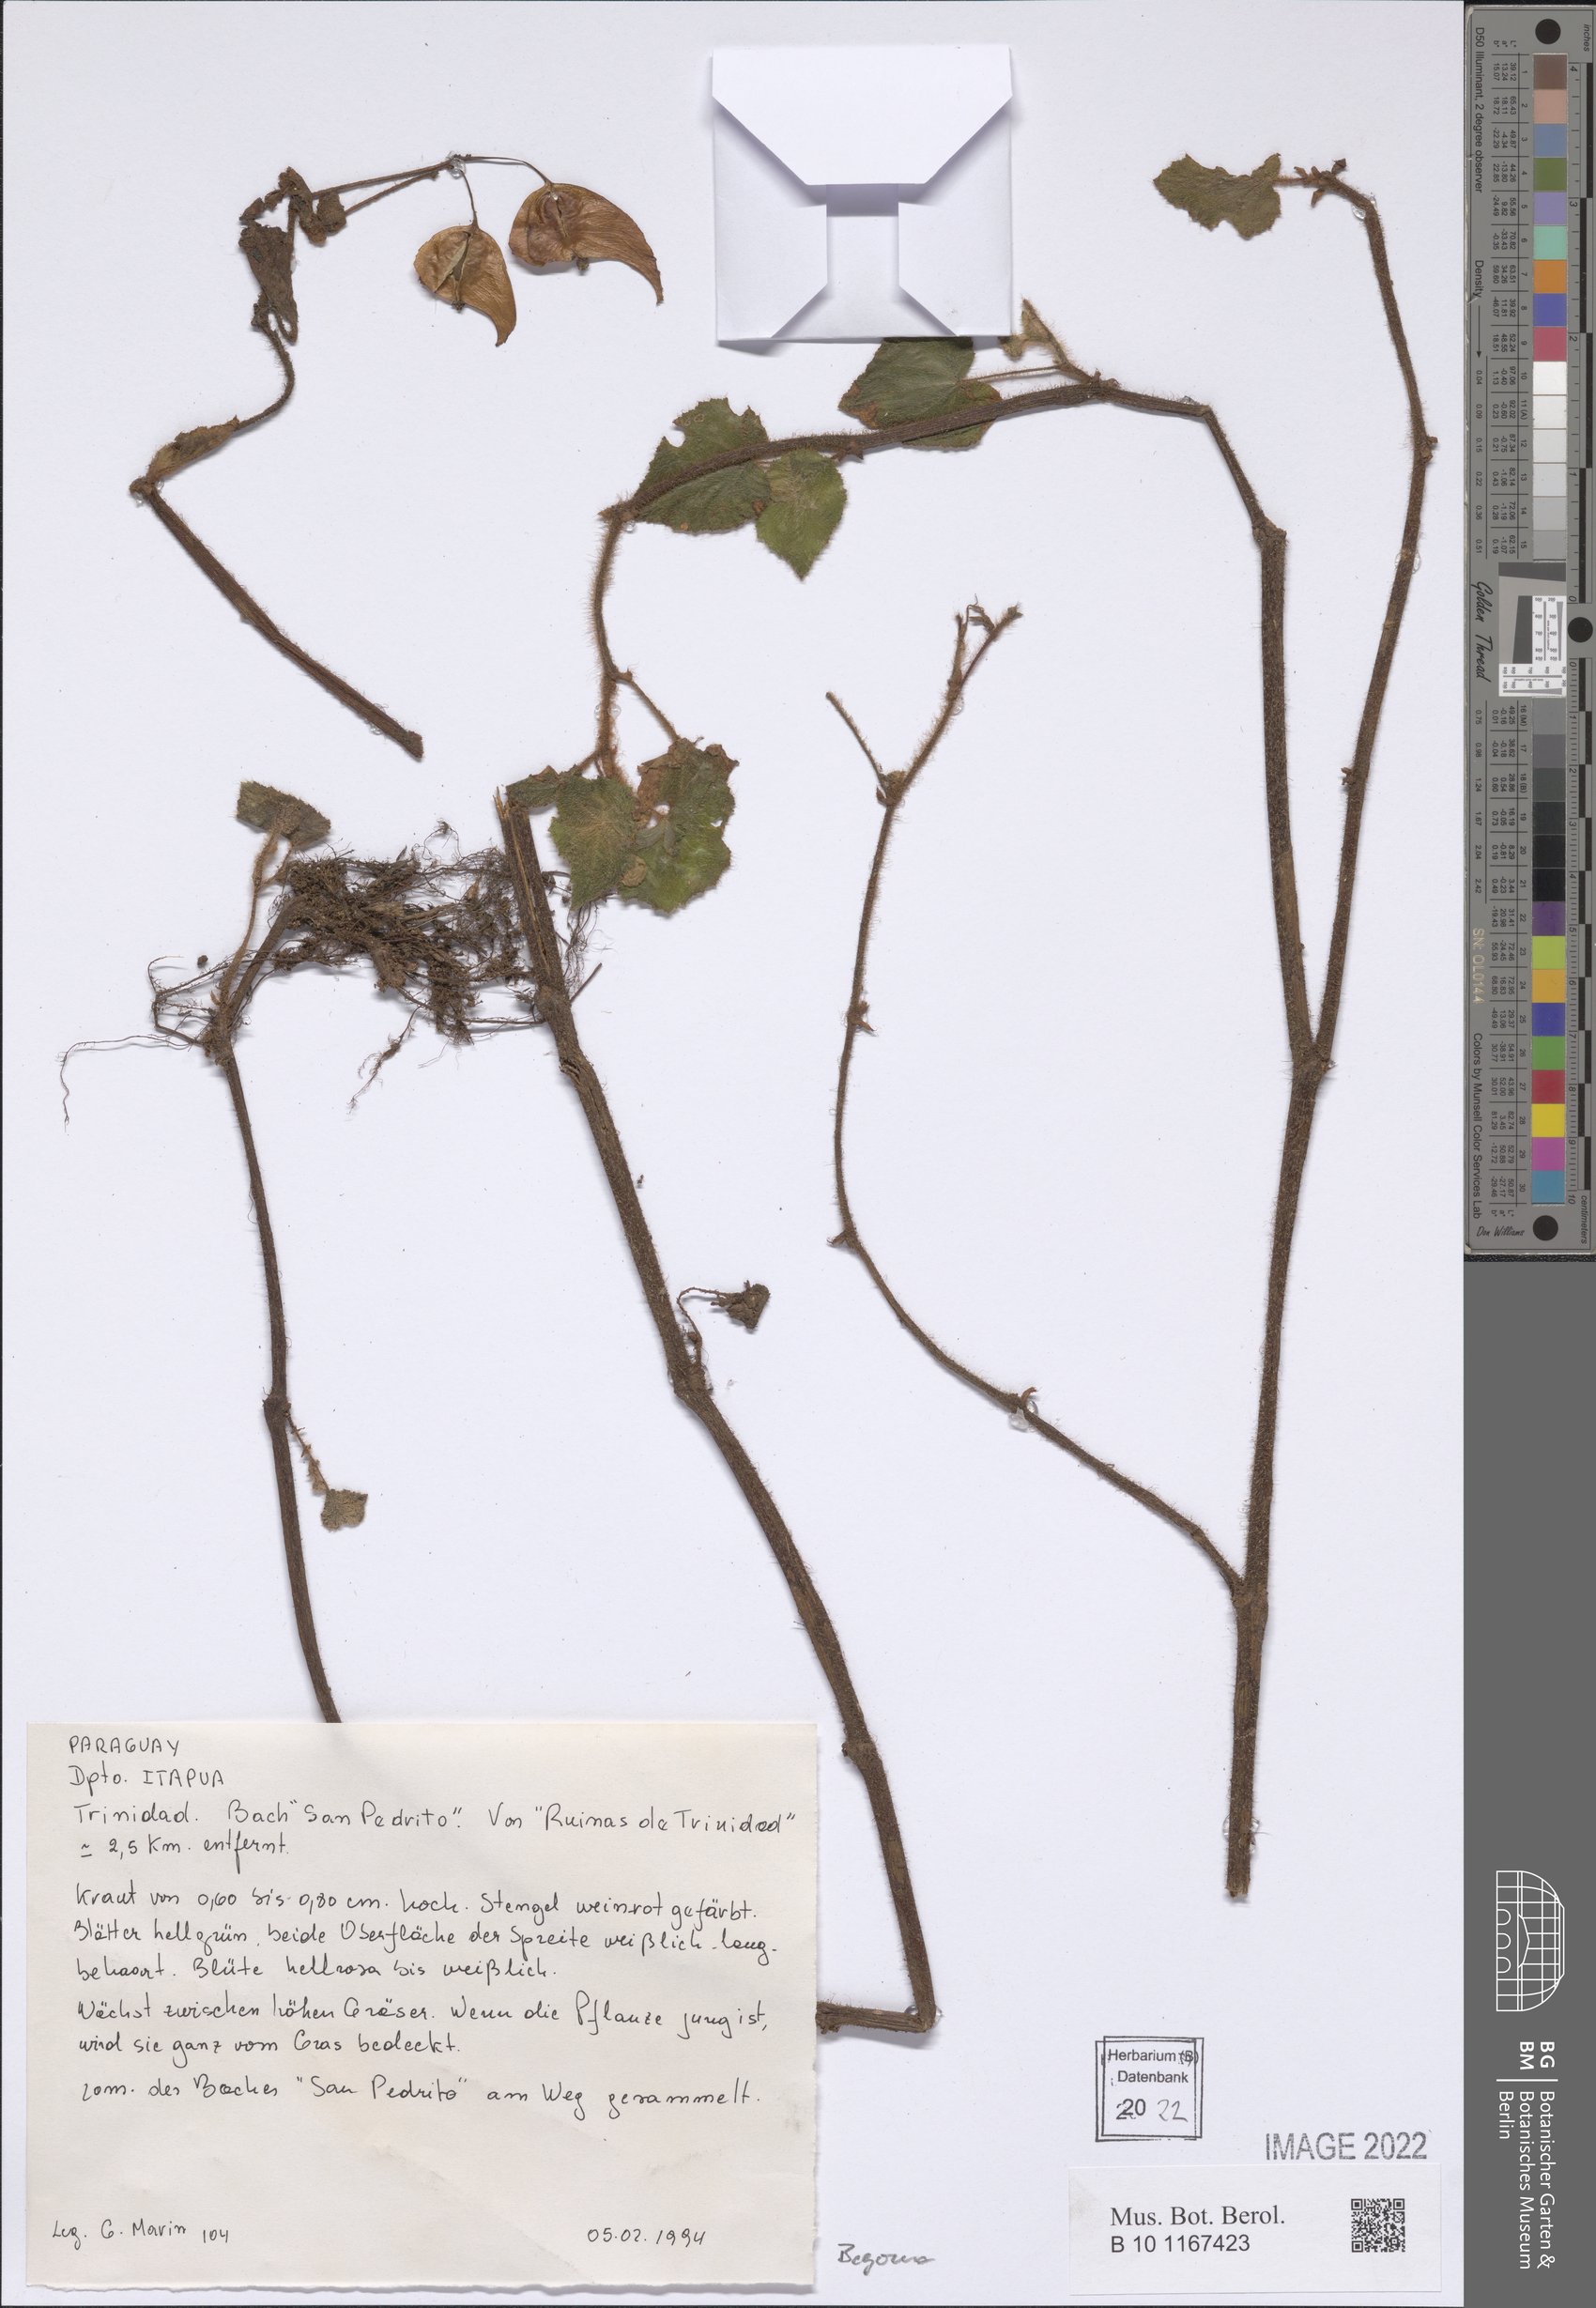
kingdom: Plantae
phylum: Tracheophyta
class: Magnoliopsida
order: Cucurbitales
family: Begoniaceae
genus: Begonia
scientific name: Begonia
